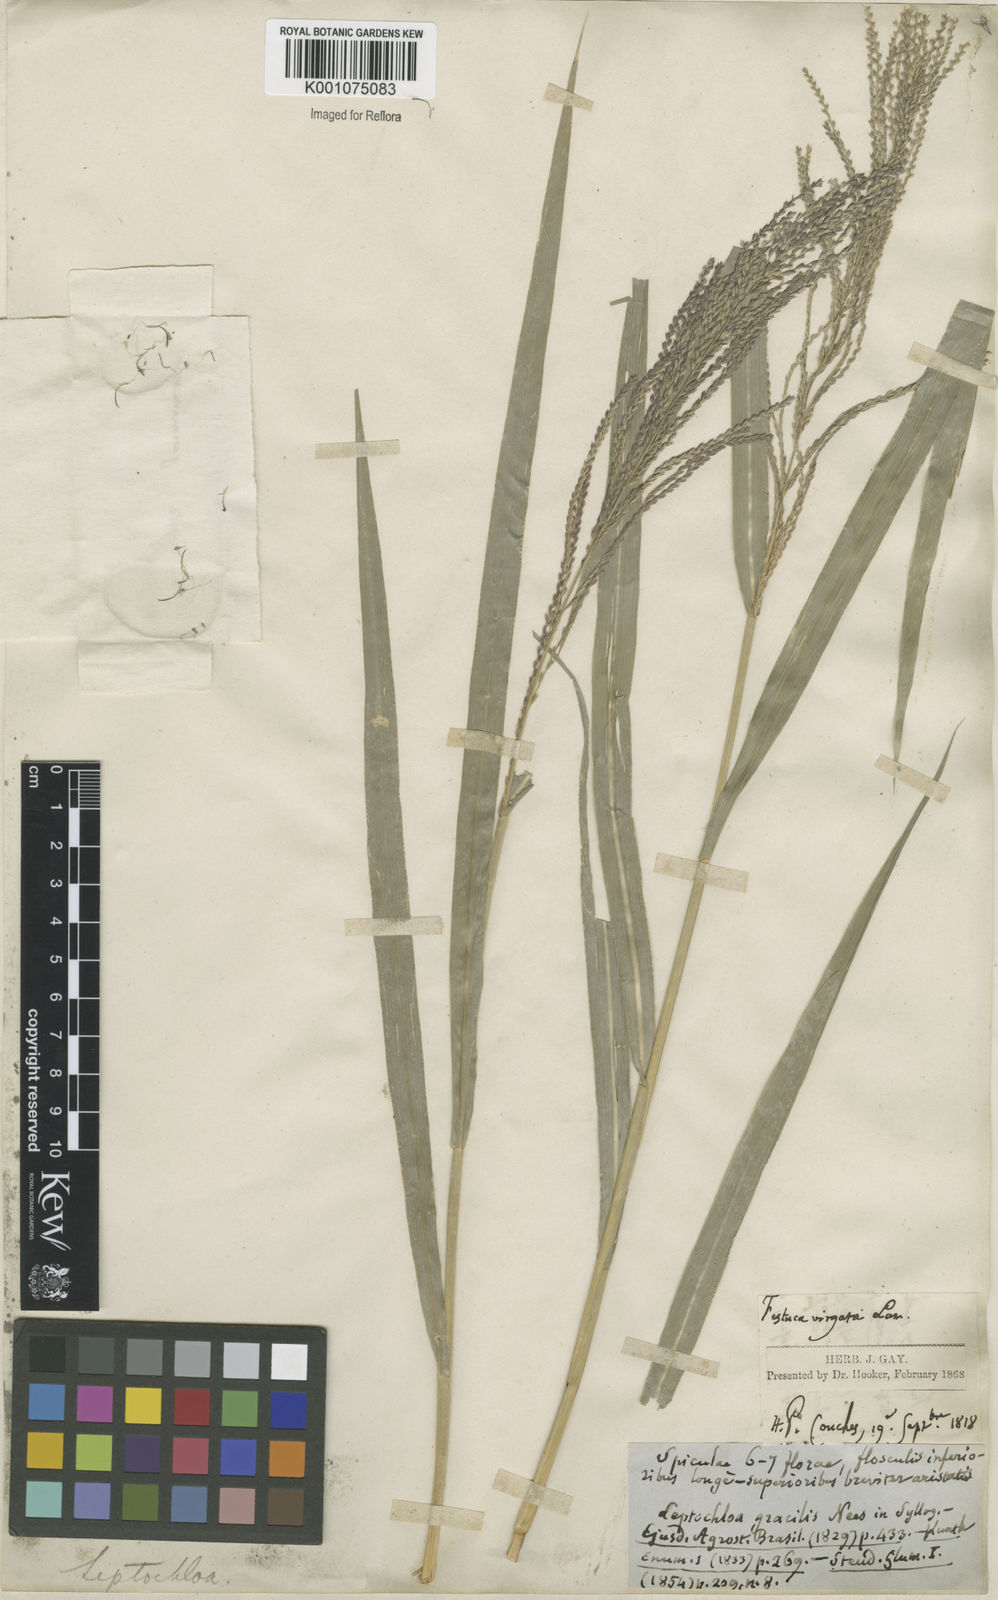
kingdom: Plantae
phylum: Tracheophyta
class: Liliopsida
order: Poales
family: Poaceae
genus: Leptochloa
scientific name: Leptochloa virgata
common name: Tropical sprangletop
